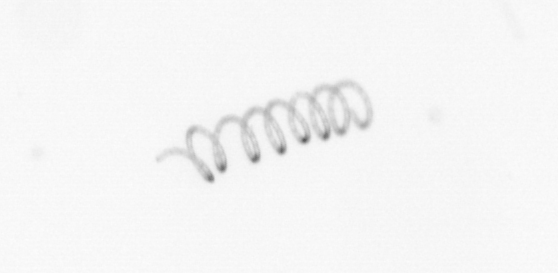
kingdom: Chromista
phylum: Ochrophyta
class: Bacillariophyceae
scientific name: Bacillariophyceae
